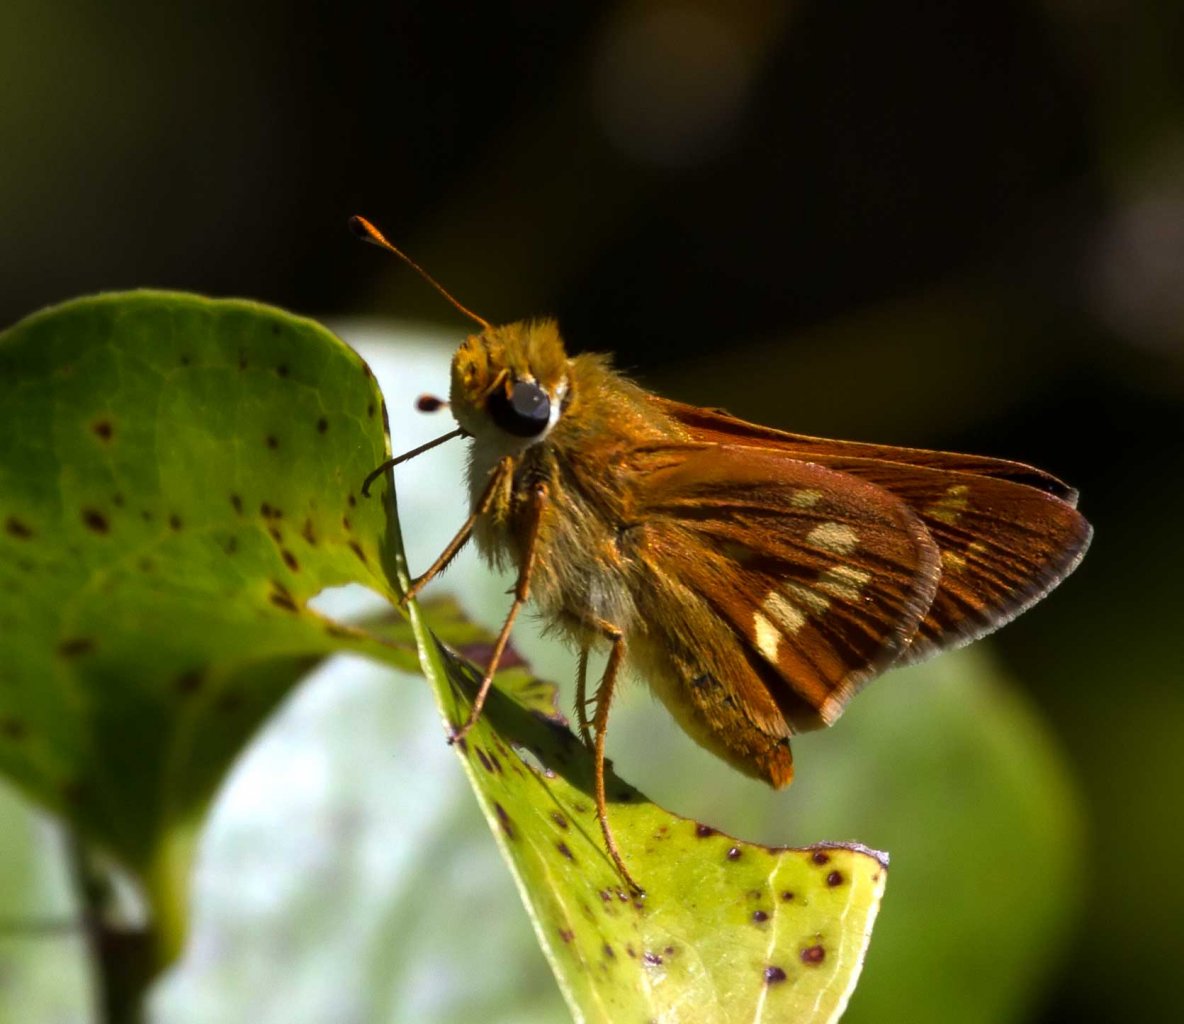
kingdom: Animalia
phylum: Arthropoda
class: Insecta
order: Lepidoptera
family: Hesperiidae
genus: Hesperia
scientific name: Hesperia leonardus
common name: Leonard's Skipper
